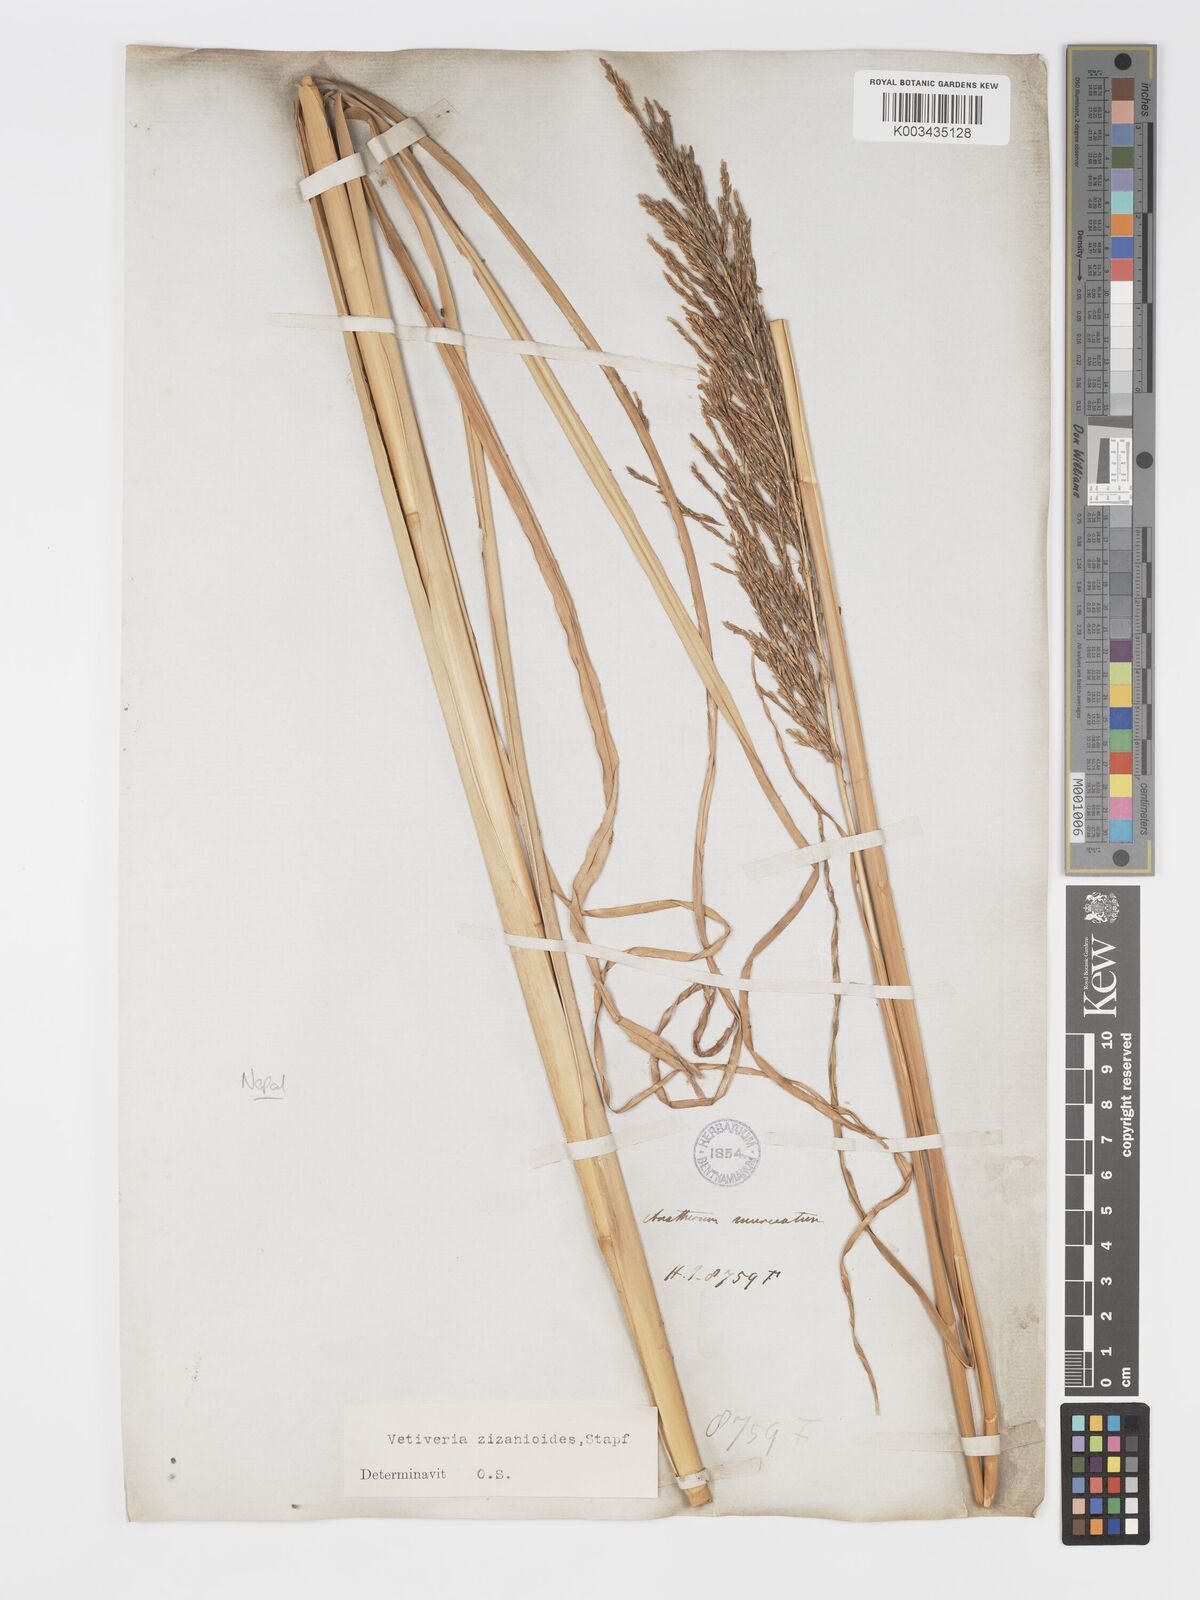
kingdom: Plantae
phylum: Tracheophyta
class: Liliopsida
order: Poales
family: Poaceae
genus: Chrysopogon
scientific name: Chrysopogon zizanioides
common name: False beardgrass
